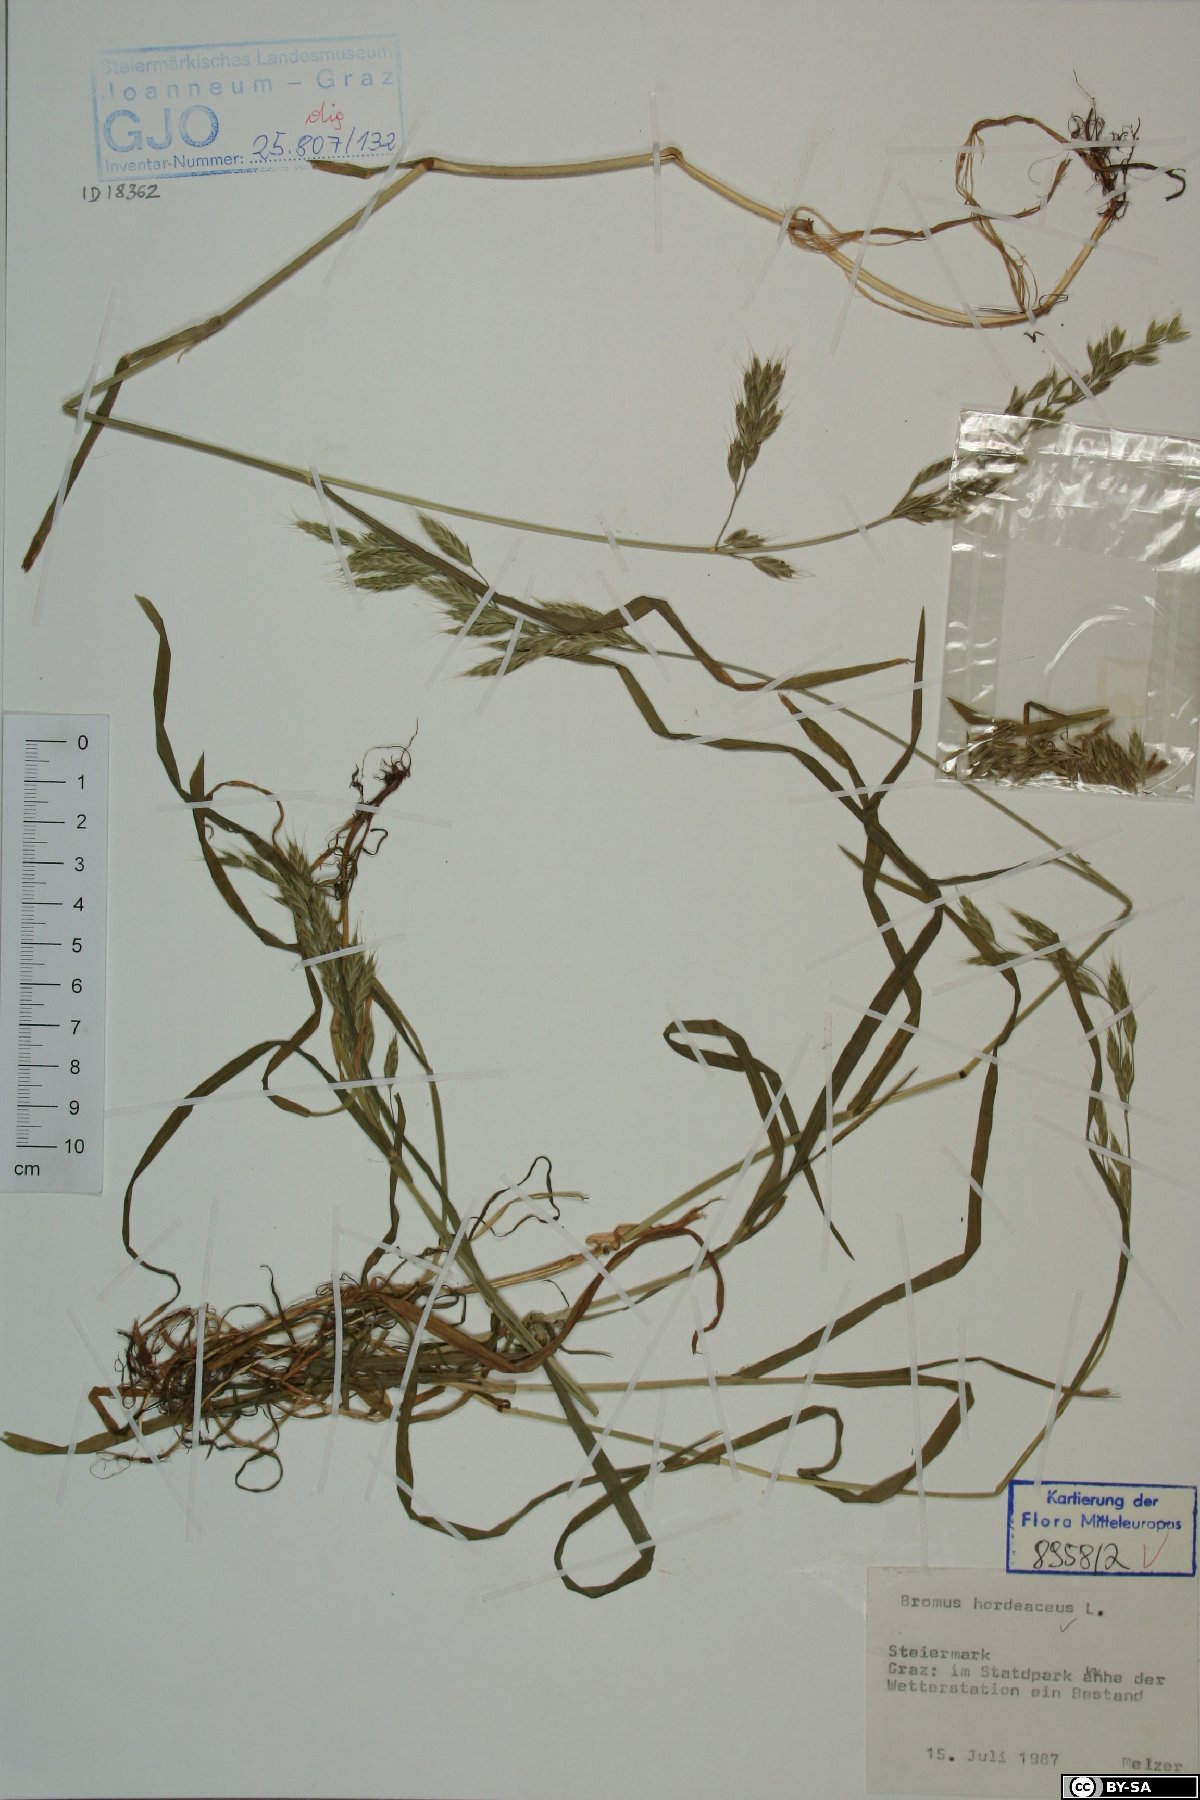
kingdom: Plantae
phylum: Tracheophyta
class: Liliopsida
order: Poales
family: Poaceae
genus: Bromus
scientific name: Bromus hordeaceus
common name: Soft brome
